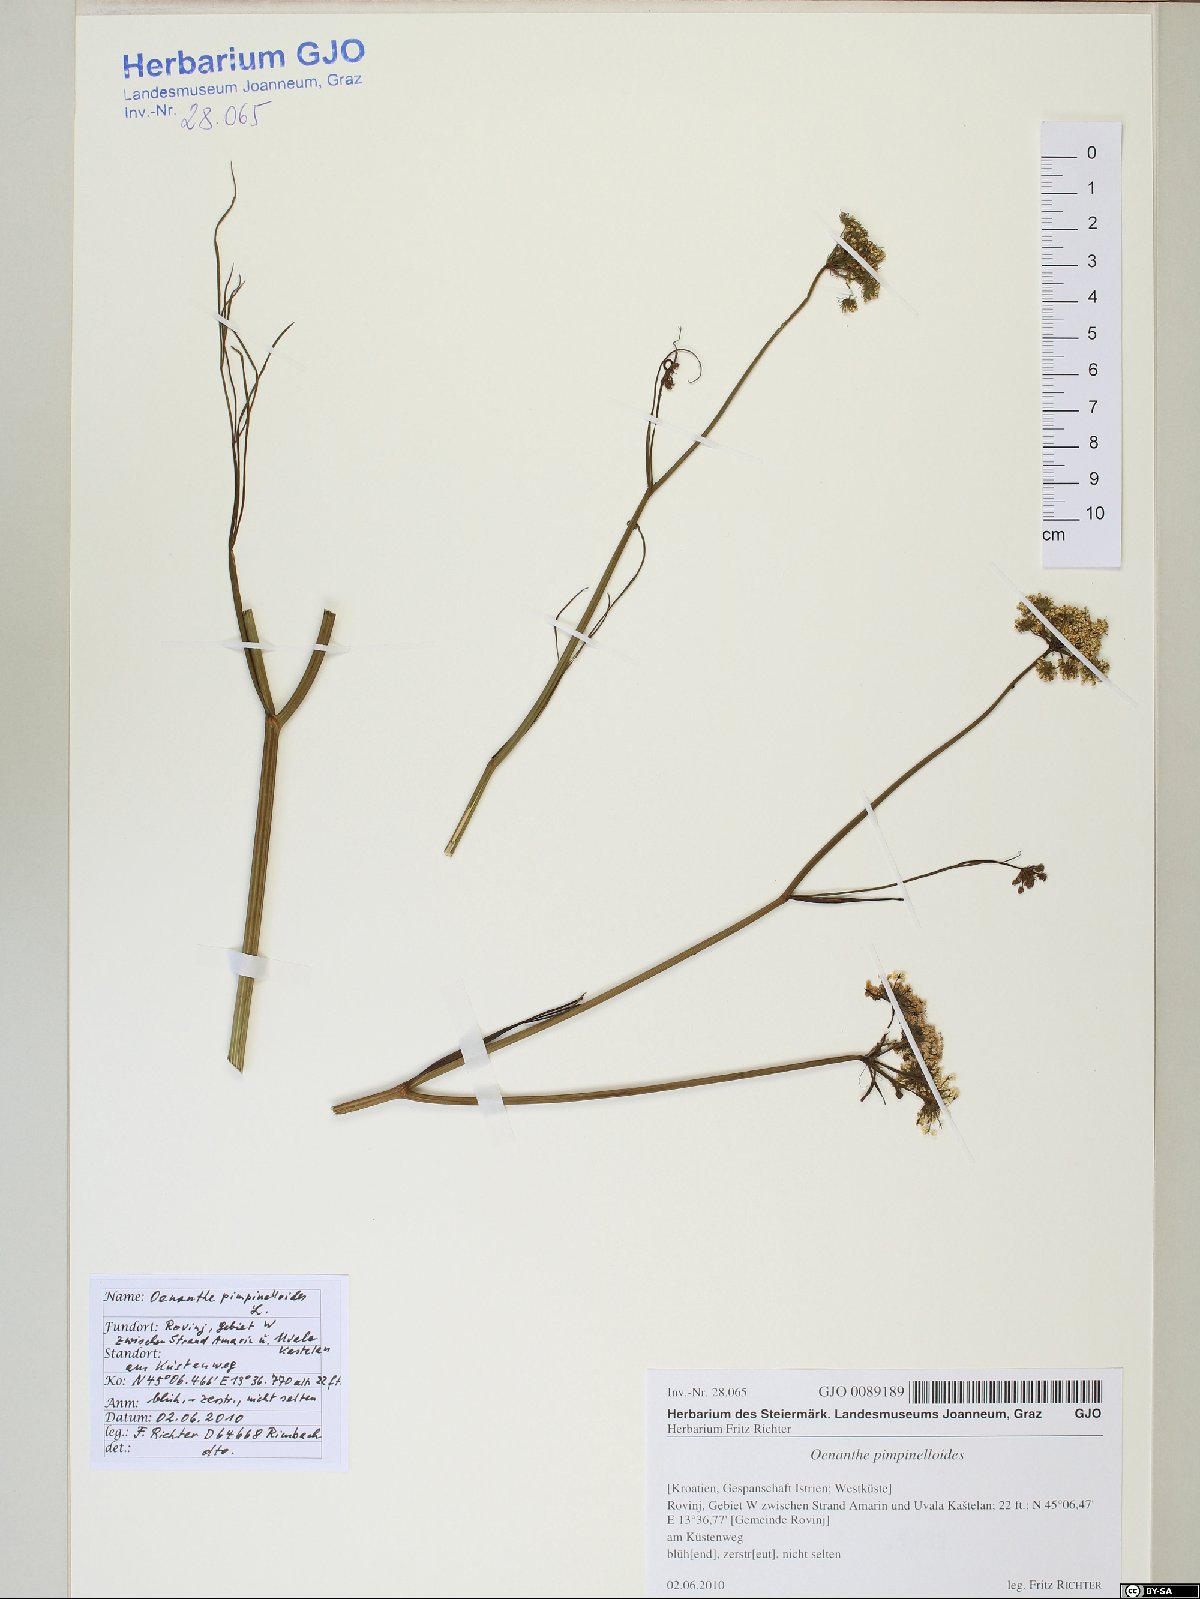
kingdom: Plantae
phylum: Tracheophyta
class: Magnoliopsida
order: Apiales
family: Apiaceae
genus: Oenanthe
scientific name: Oenanthe pimpinelloides
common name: Corky-fruited water-dropwort
